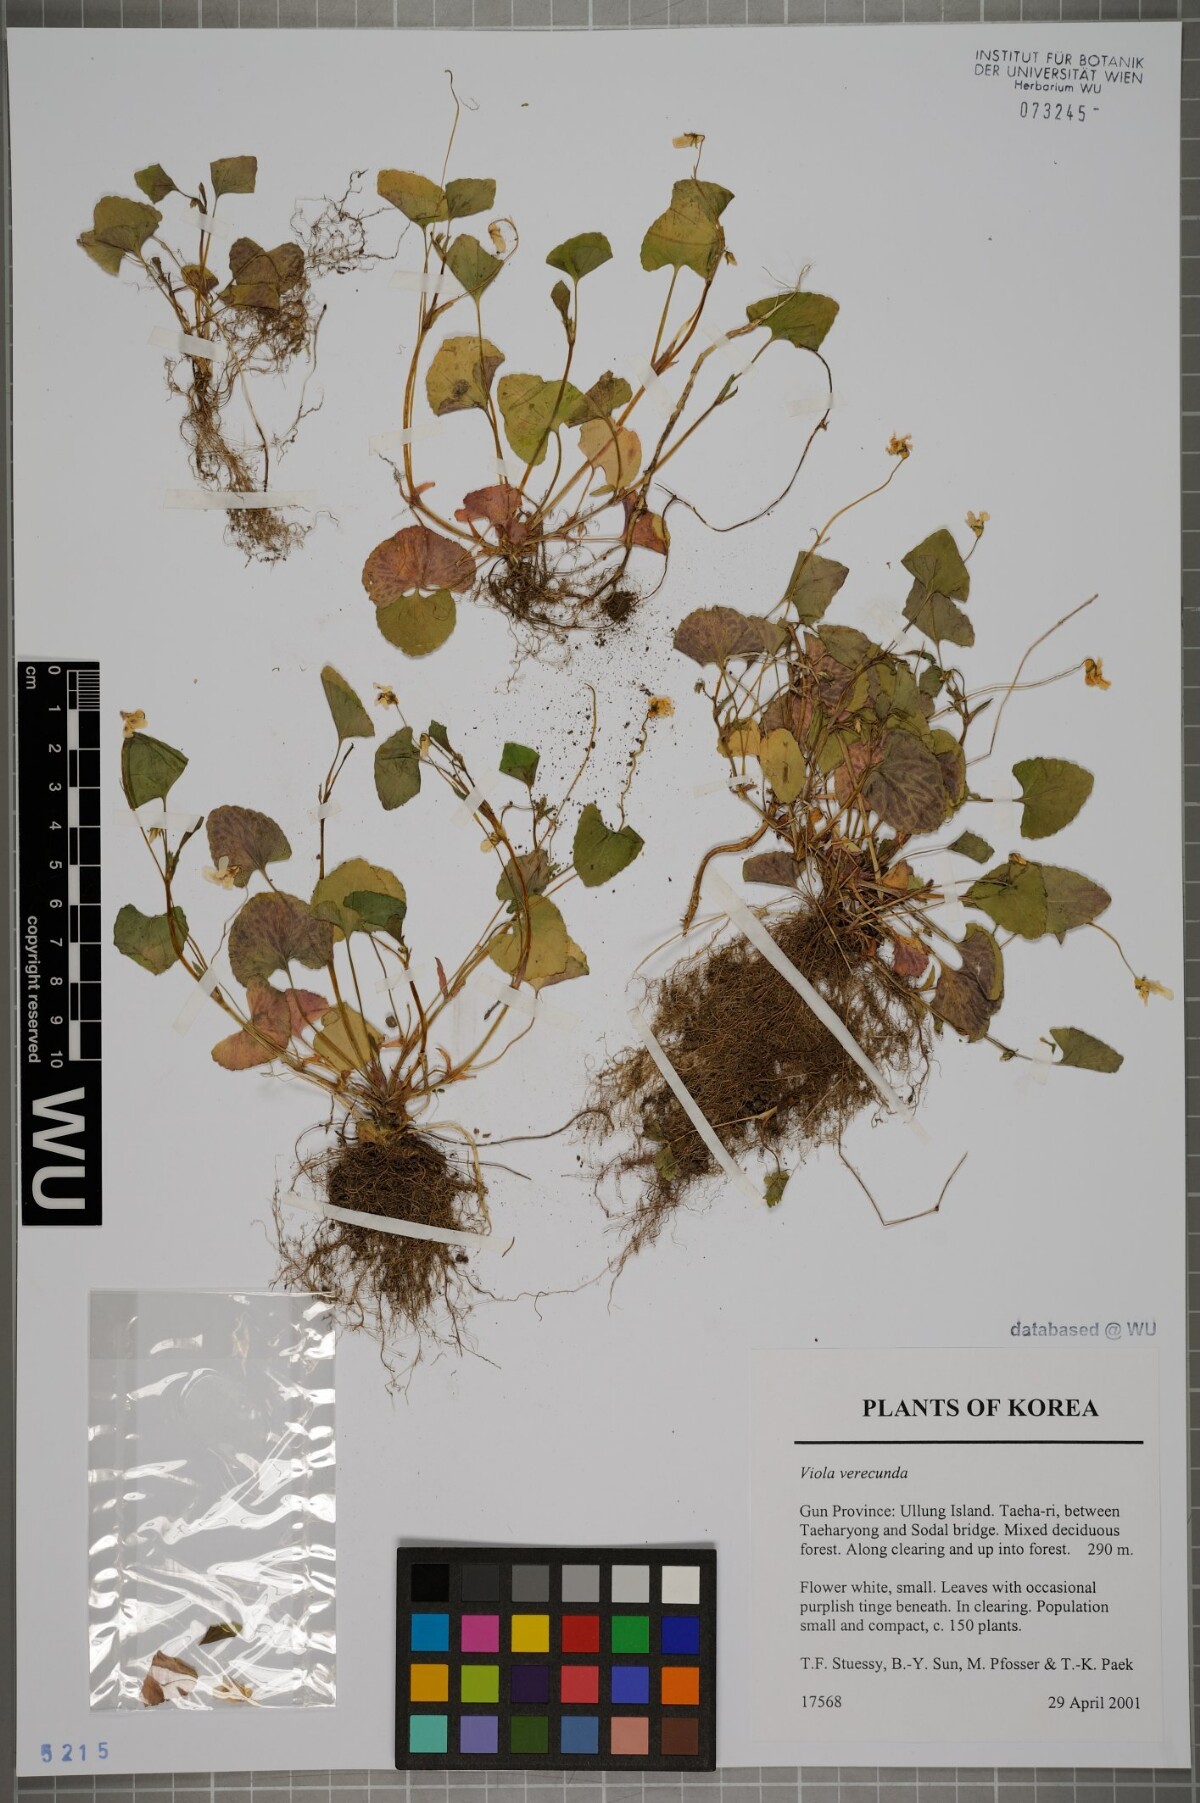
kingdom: Plantae
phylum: Tracheophyta
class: Magnoliopsida
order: Malpighiales
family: Violaceae
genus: Viola
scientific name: Viola hamiltoniana
